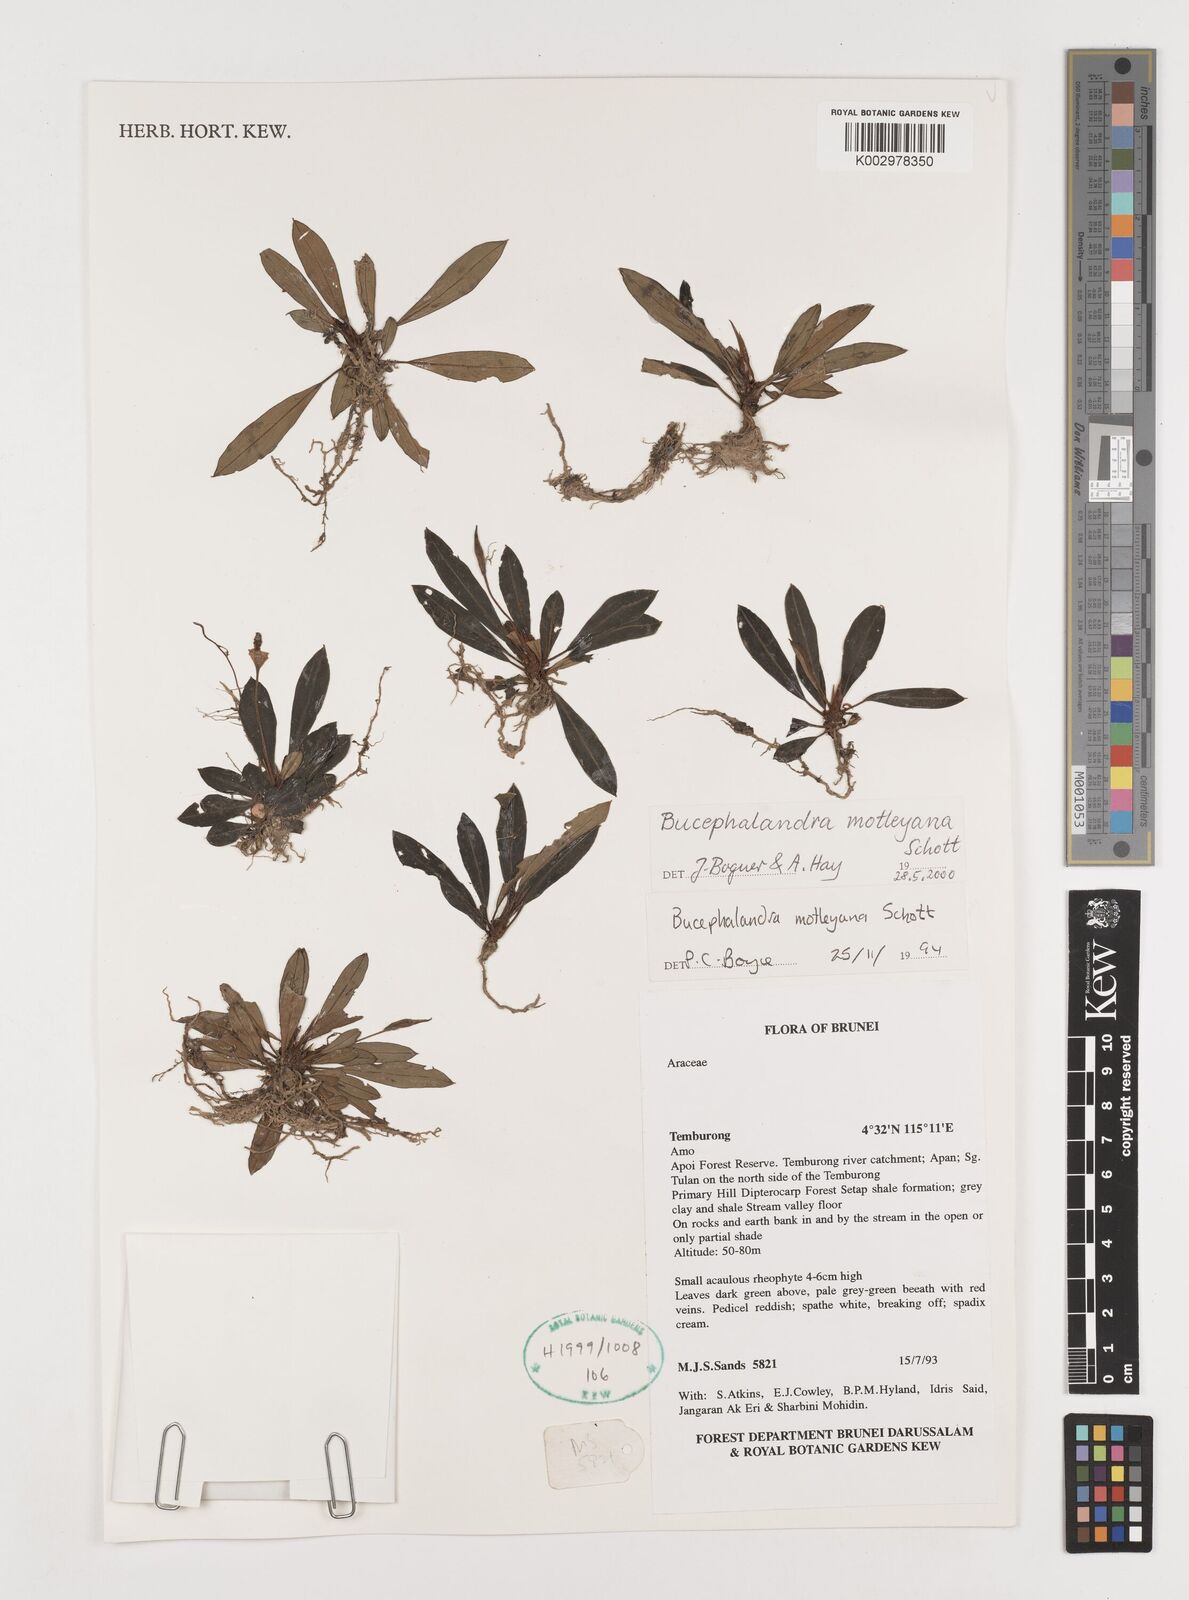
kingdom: Plantae
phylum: Tracheophyta
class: Liliopsida
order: Alismatales
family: Araceae
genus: Bucephalandra
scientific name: Bucephalandra motleyana
